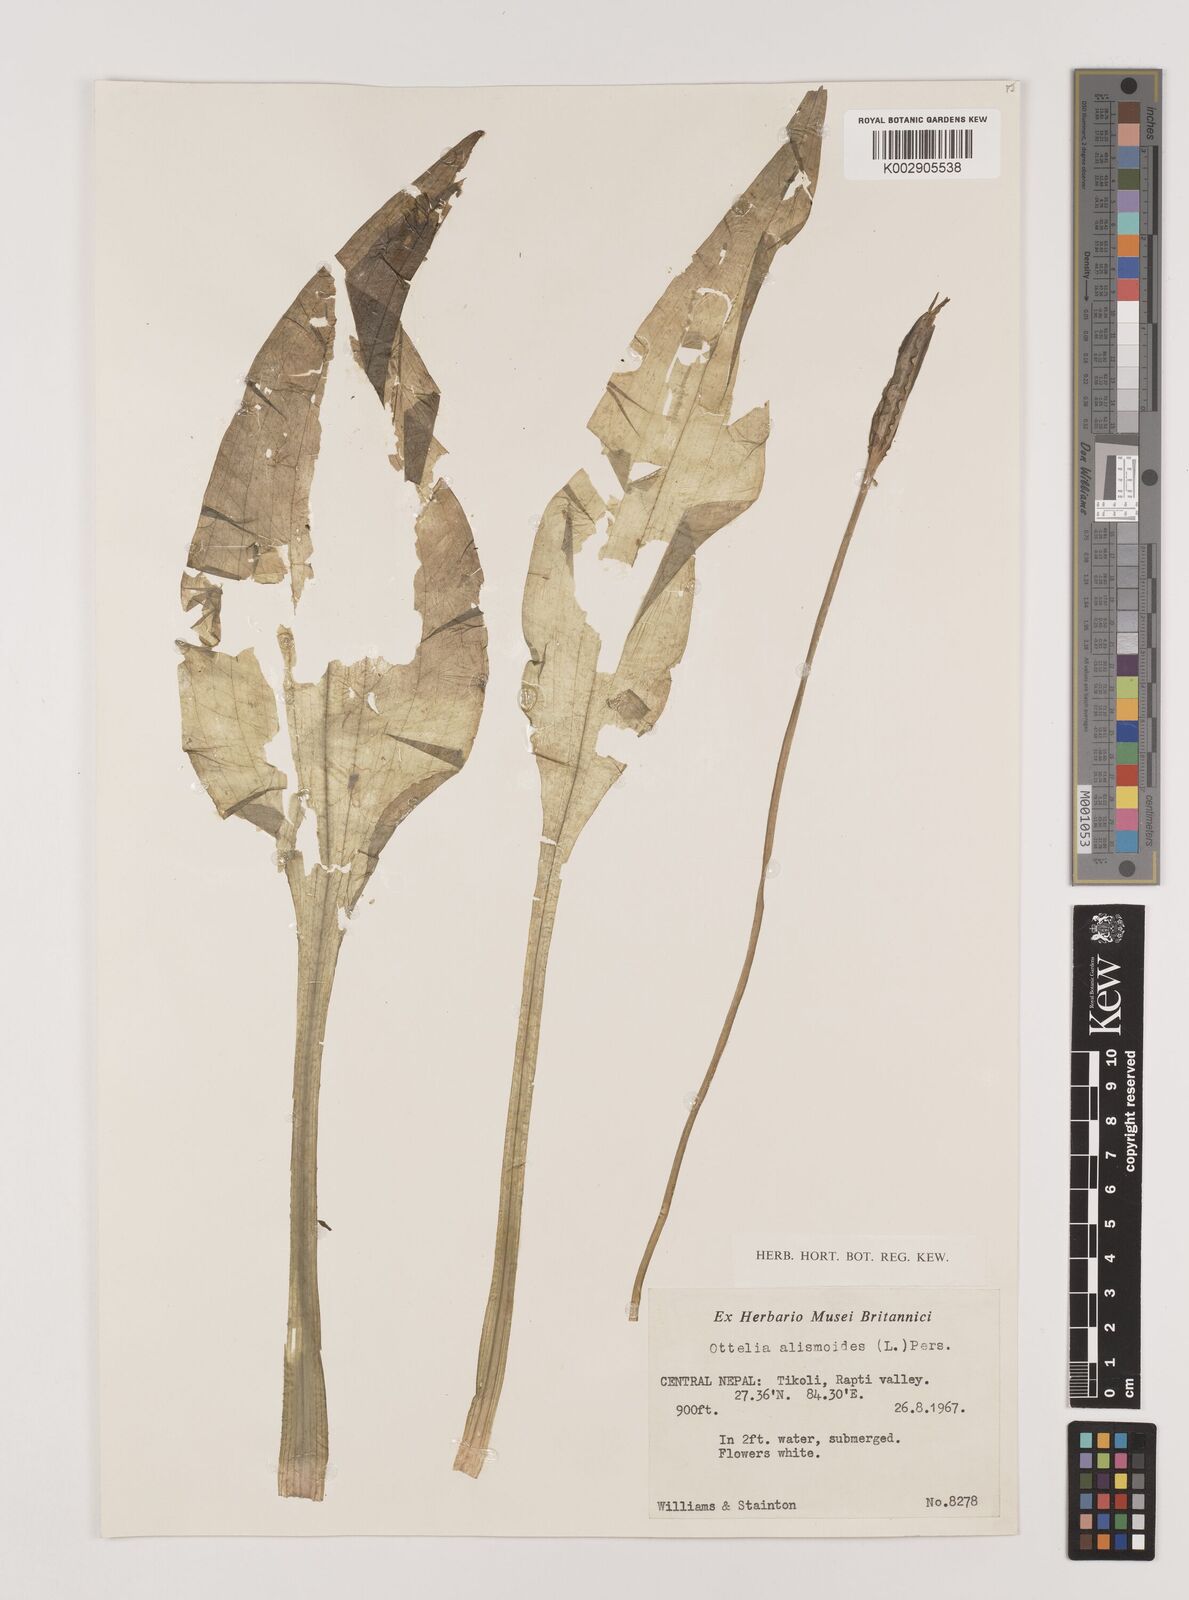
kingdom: Plantae
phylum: Tracheophyta
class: Liliopsida
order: Alismatales
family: Hydrocharitaceae
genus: Ottelia
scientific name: Ottelia alismoides
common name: Duck-lettuce
